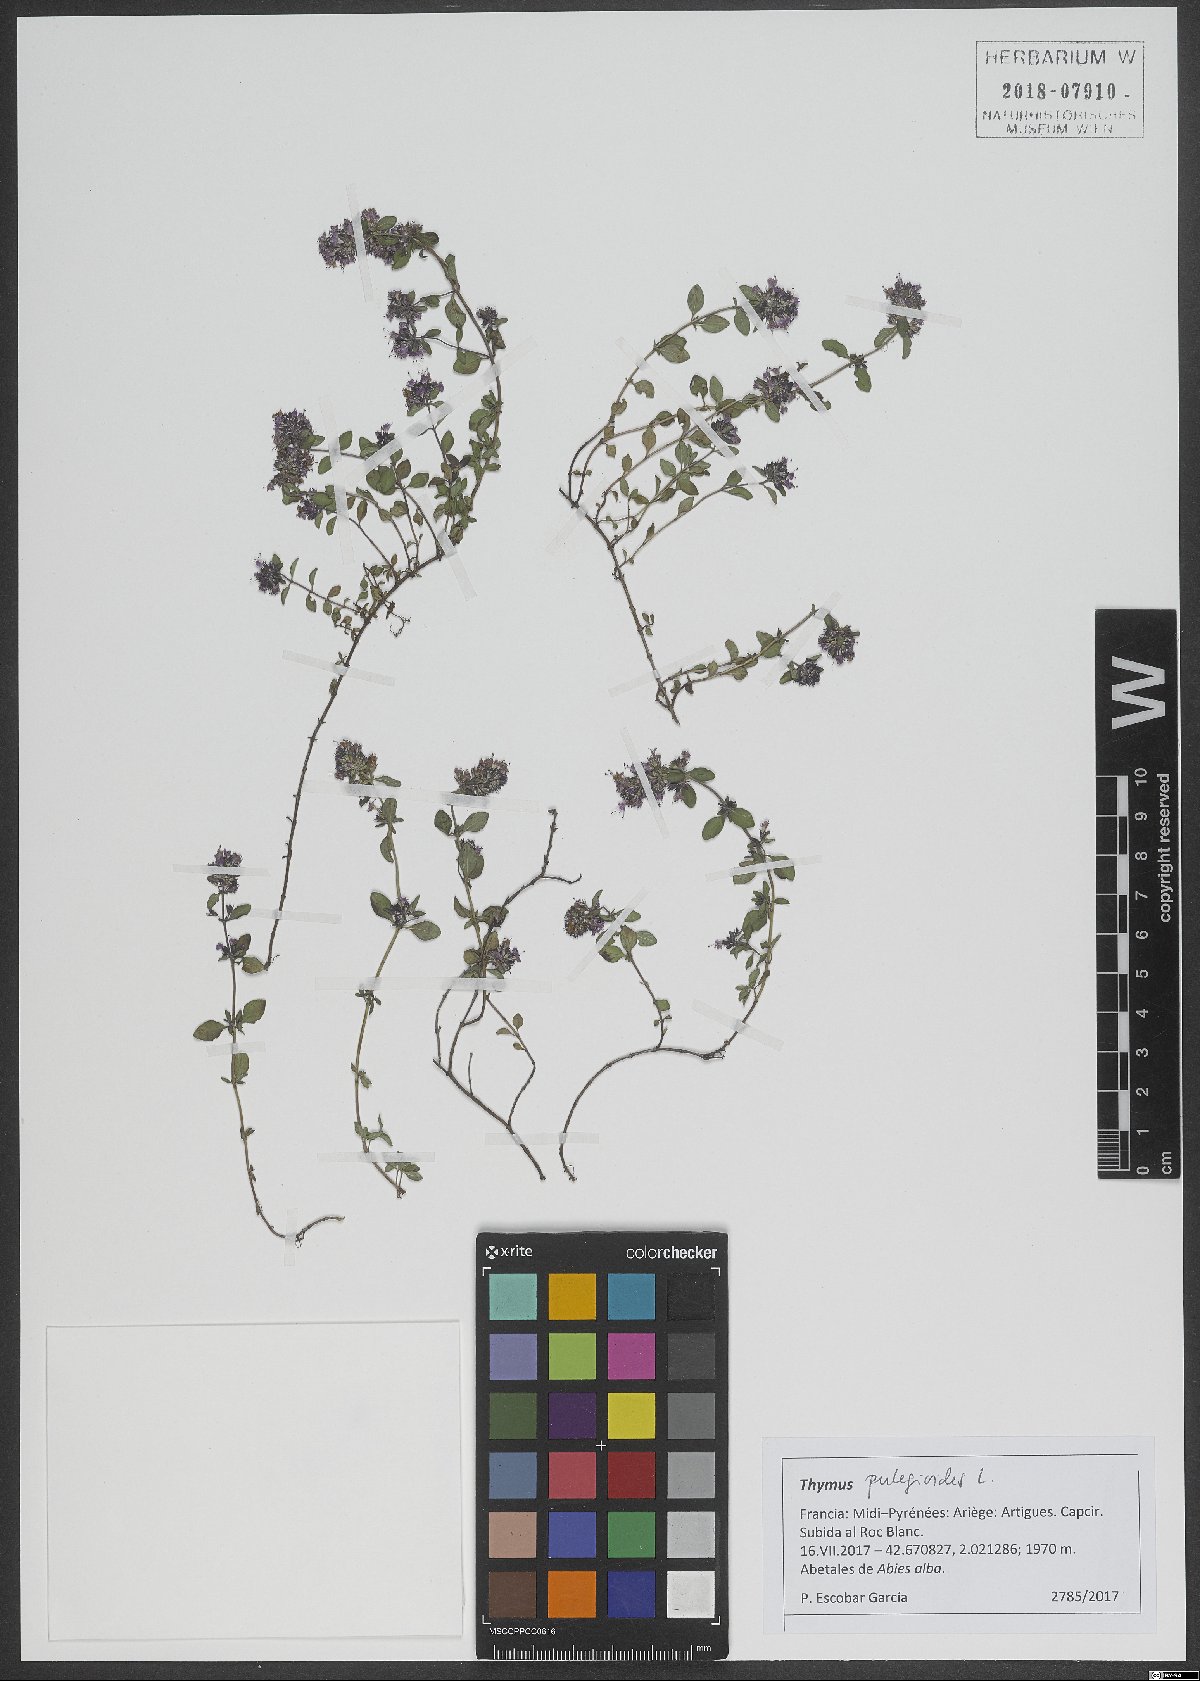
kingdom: Plantae
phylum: Tracheophyta
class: Magnoliopsida
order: Lamiales
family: Lamiaceae
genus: Thymus
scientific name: Thymus pulegioides
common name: Large thyme
